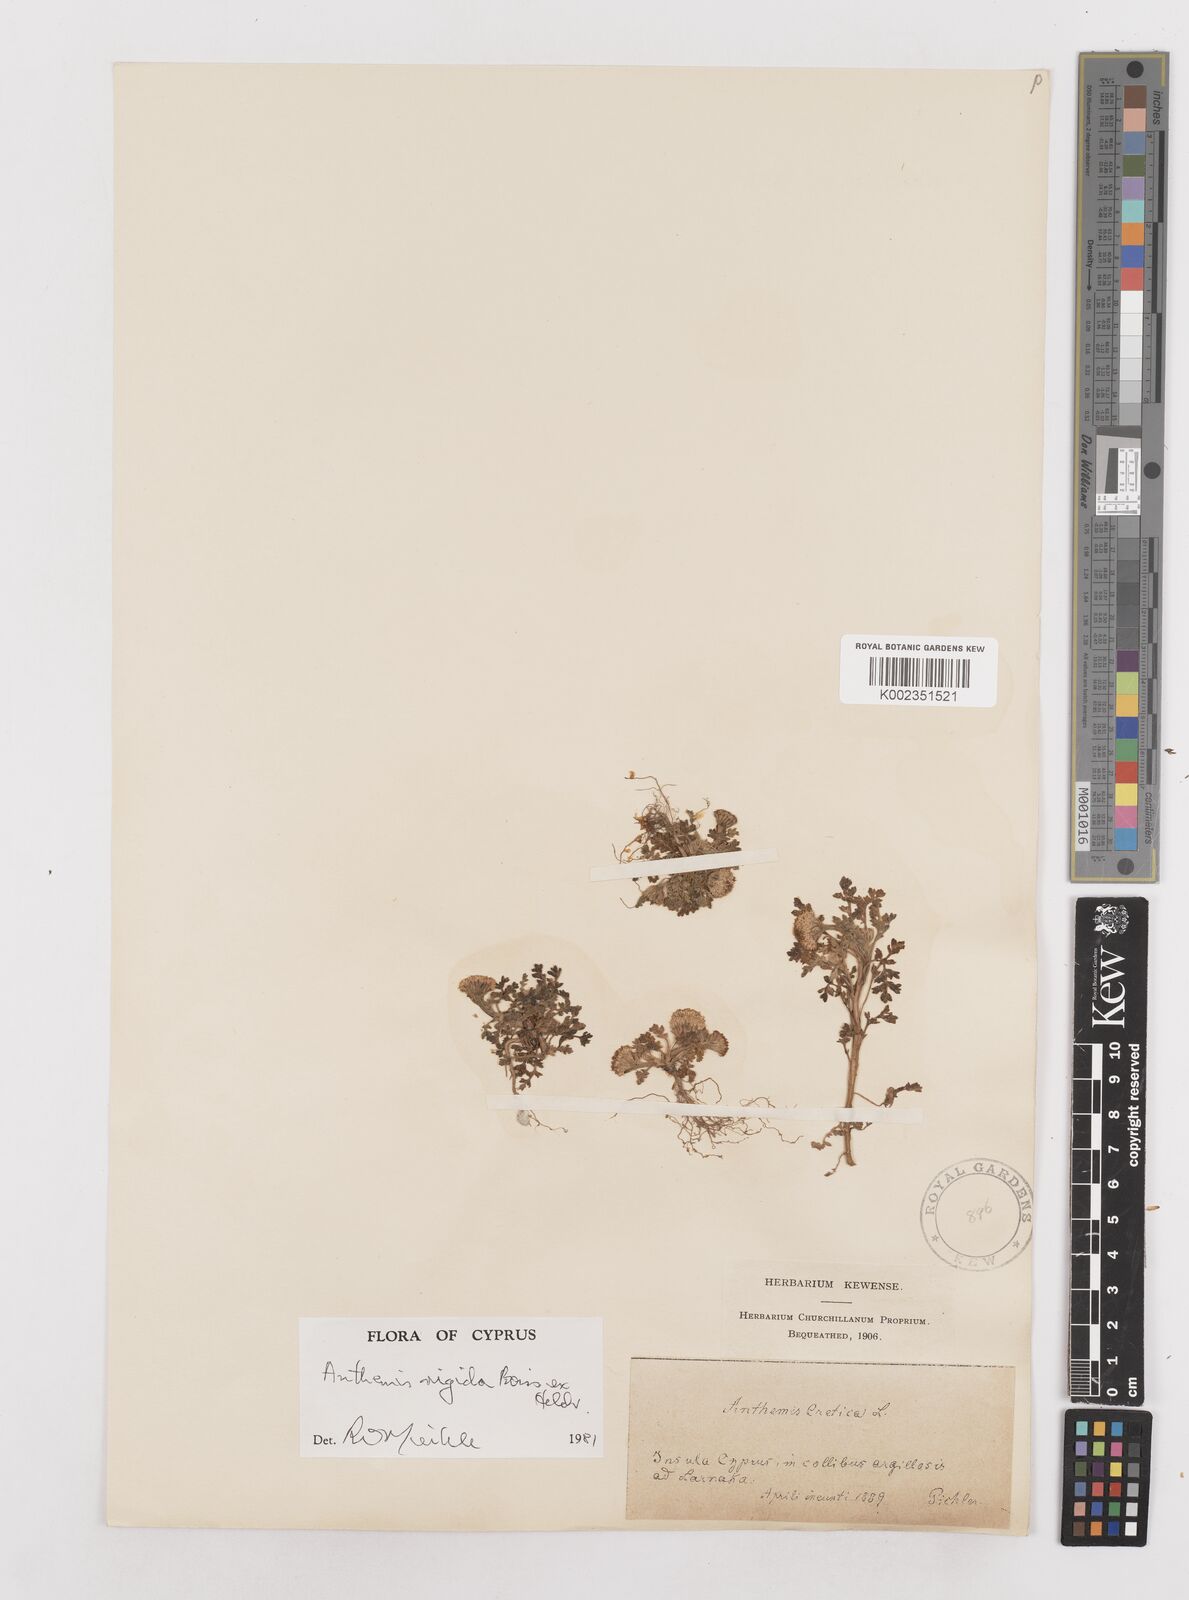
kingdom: Plantae
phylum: Tracheophyta
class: Magnoliopsida
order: Asterales
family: Asteraceae
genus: Anthemis
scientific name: Anthemis rigida
